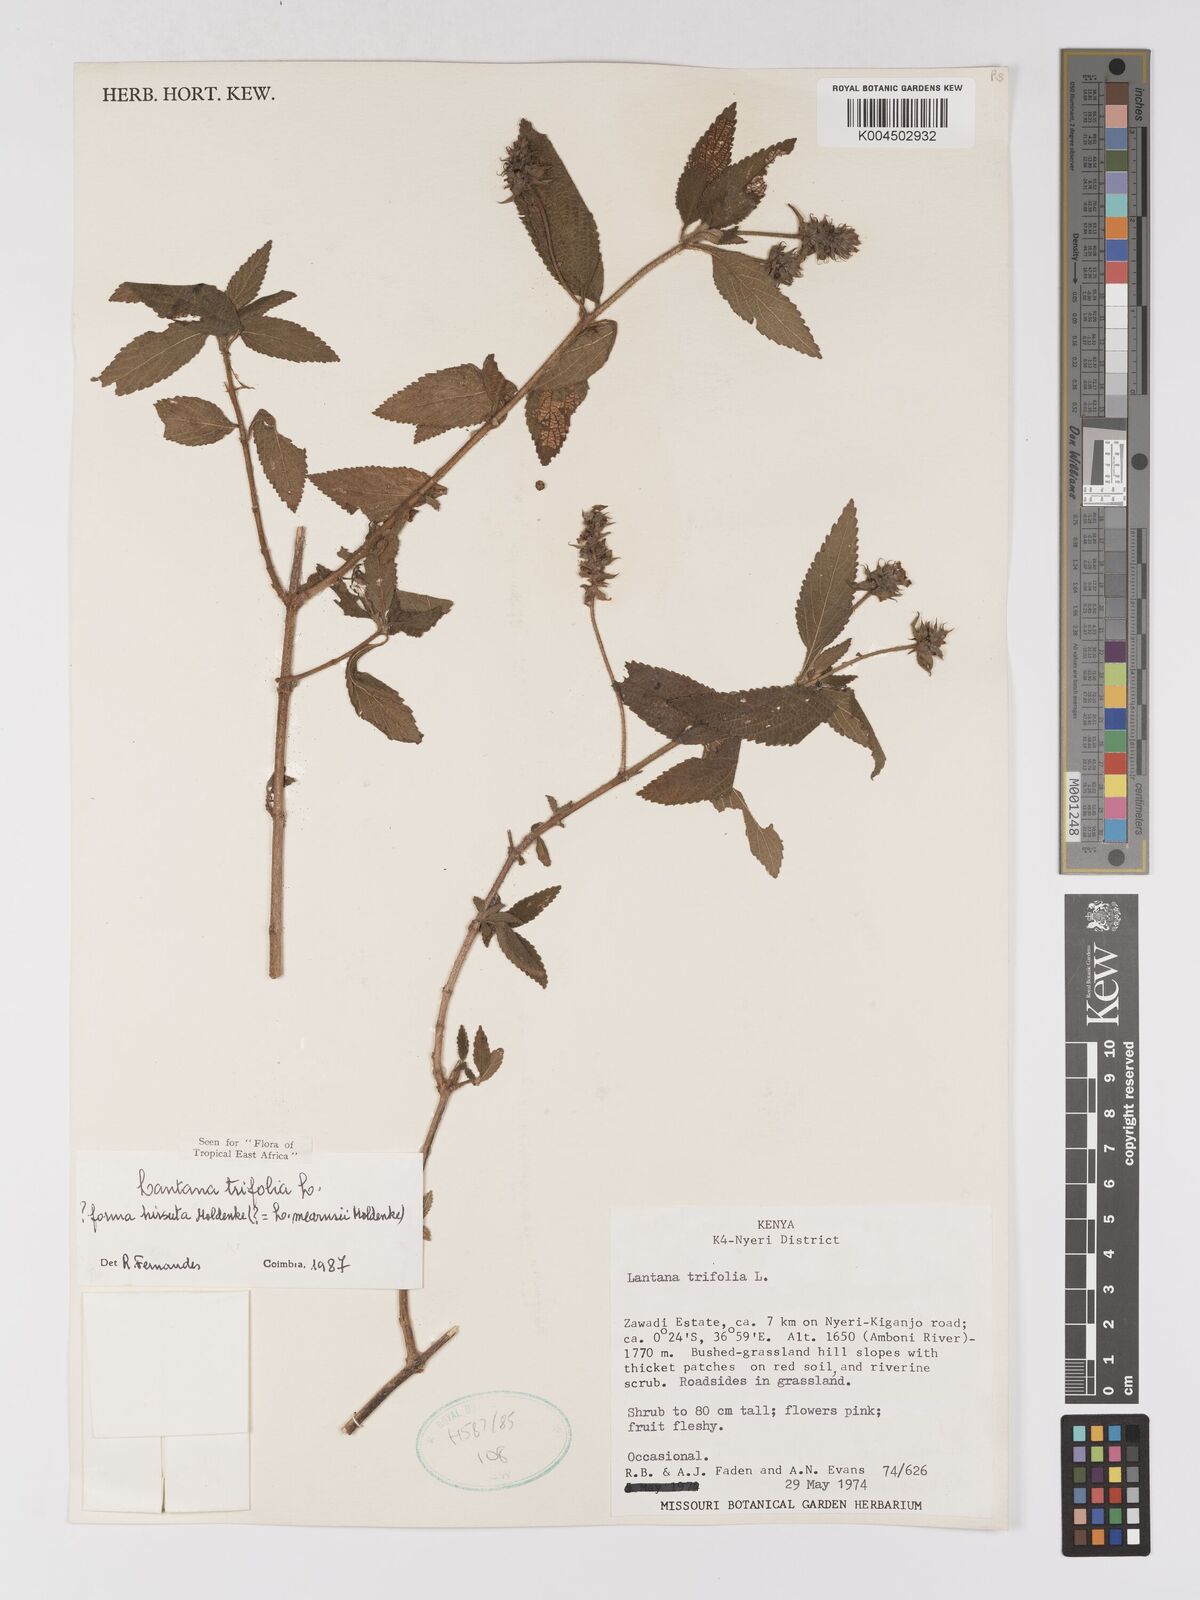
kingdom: Plantae
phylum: Tracheophyta
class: Magnoliopsida
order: Lamiales
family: Verbenaceae
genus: Lantana
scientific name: Lantana trifolia
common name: Sweet-sage
